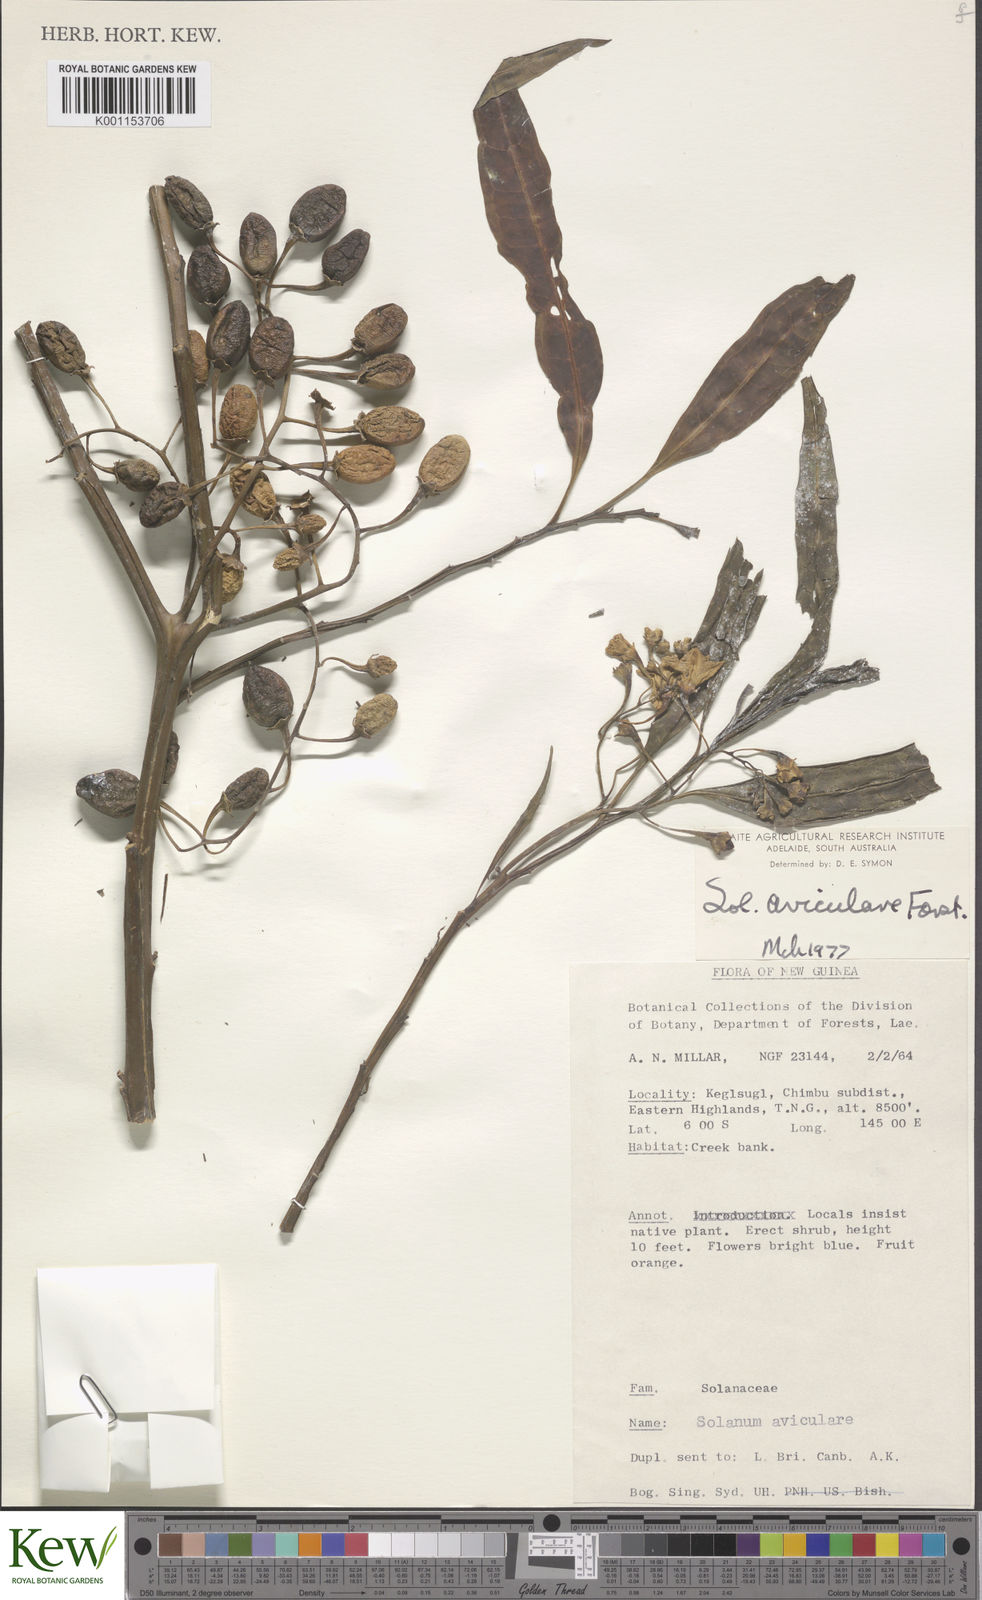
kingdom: Plantae
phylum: Tracheophyta
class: Magnoliopsida
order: Solanales
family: Solanaceae
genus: Solanum
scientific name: Solanum aviculare
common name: New zealand nightshade
